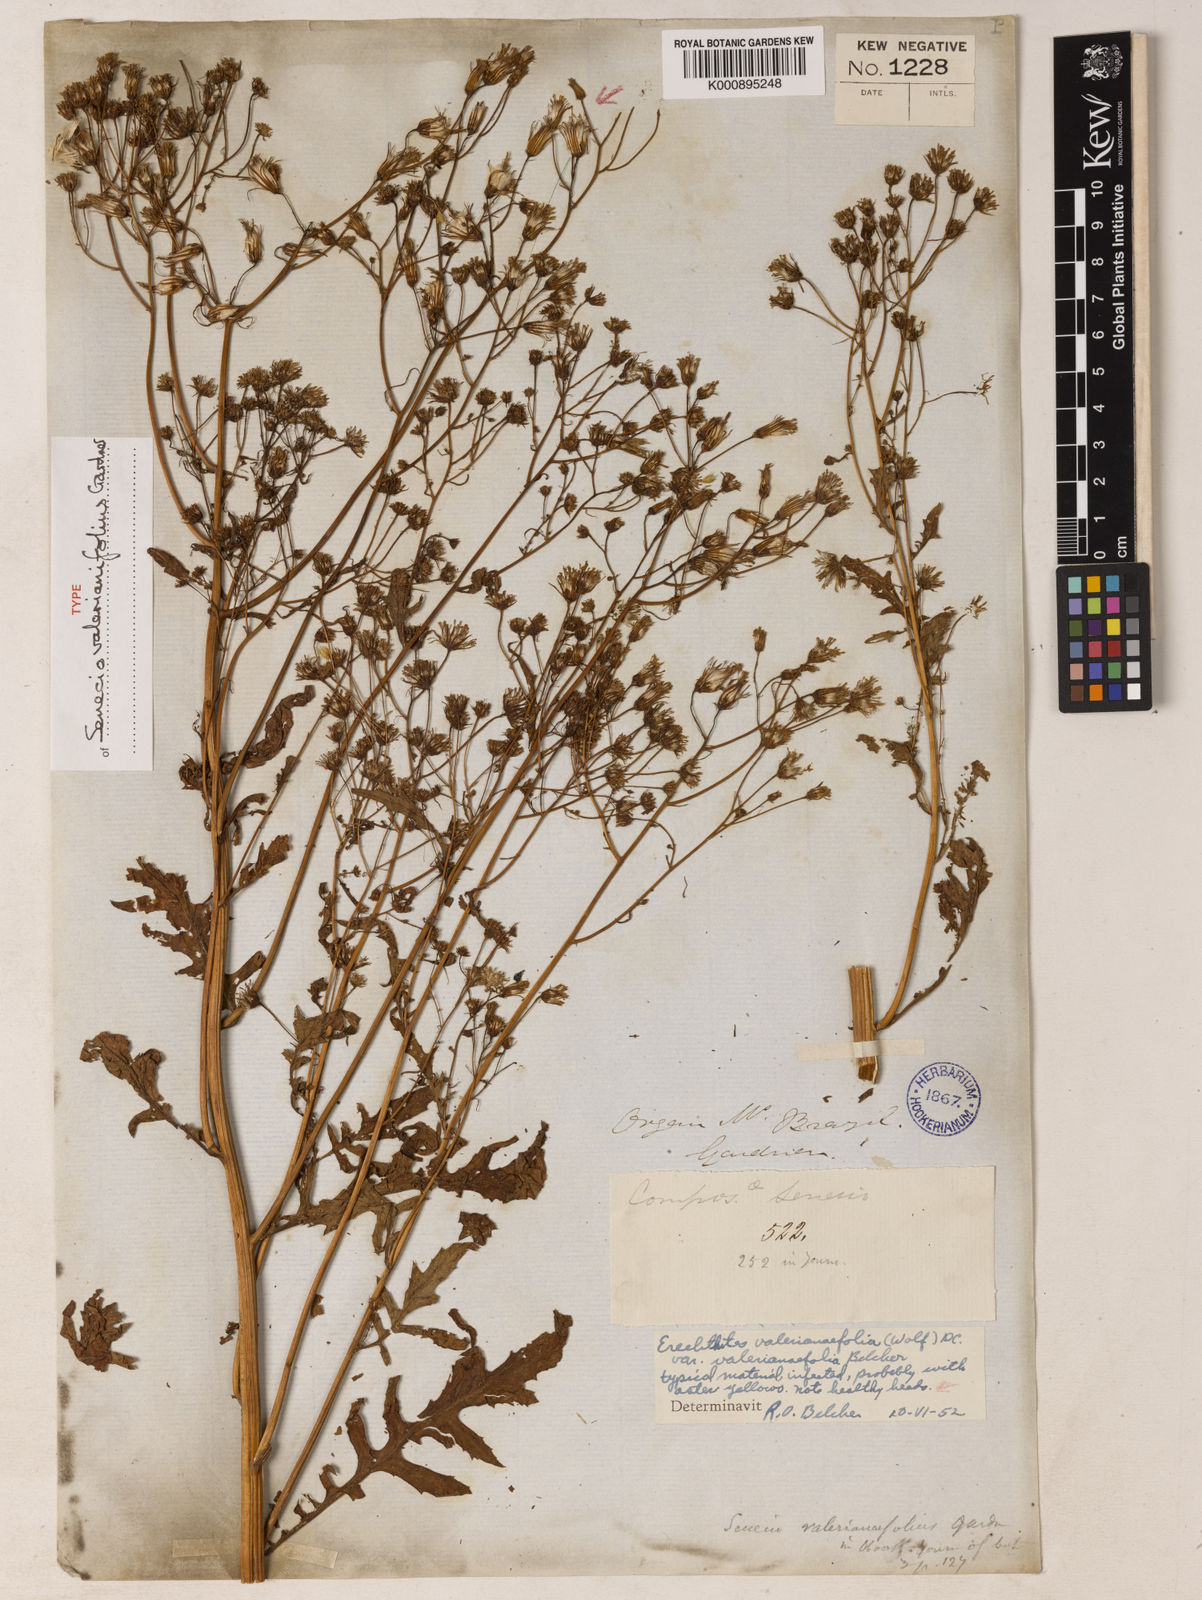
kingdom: Plantae
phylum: Tracheophyta
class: Magnoliopsida
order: Asterales
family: Asteraceae
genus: Erechtites
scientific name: Erechtites valerianifolius
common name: Tropical burnweed
